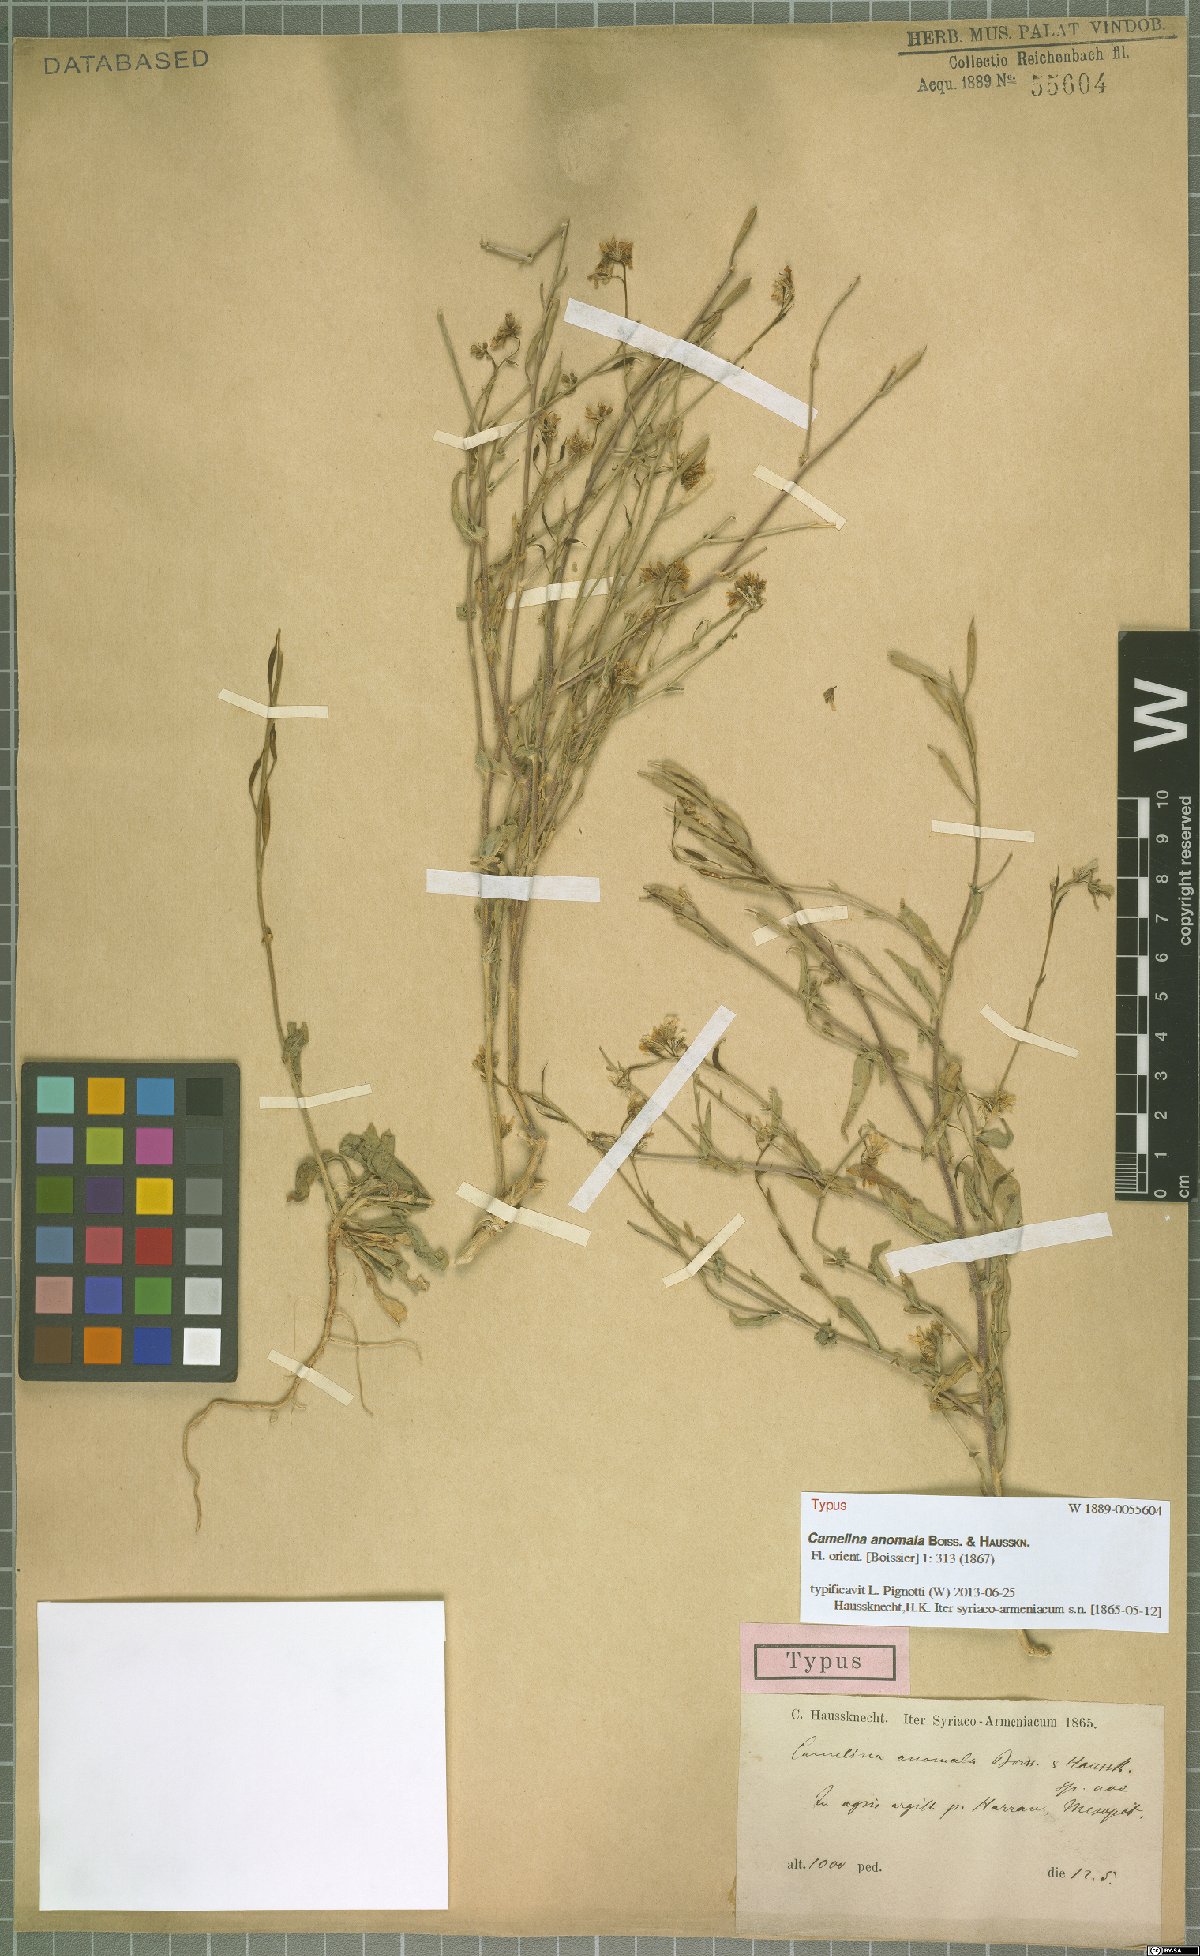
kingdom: Plantae
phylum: Tracheophyta
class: Magnoliopsida
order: Brassicales
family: Brassicaceae
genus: Camelina
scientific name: Camelina anomala
